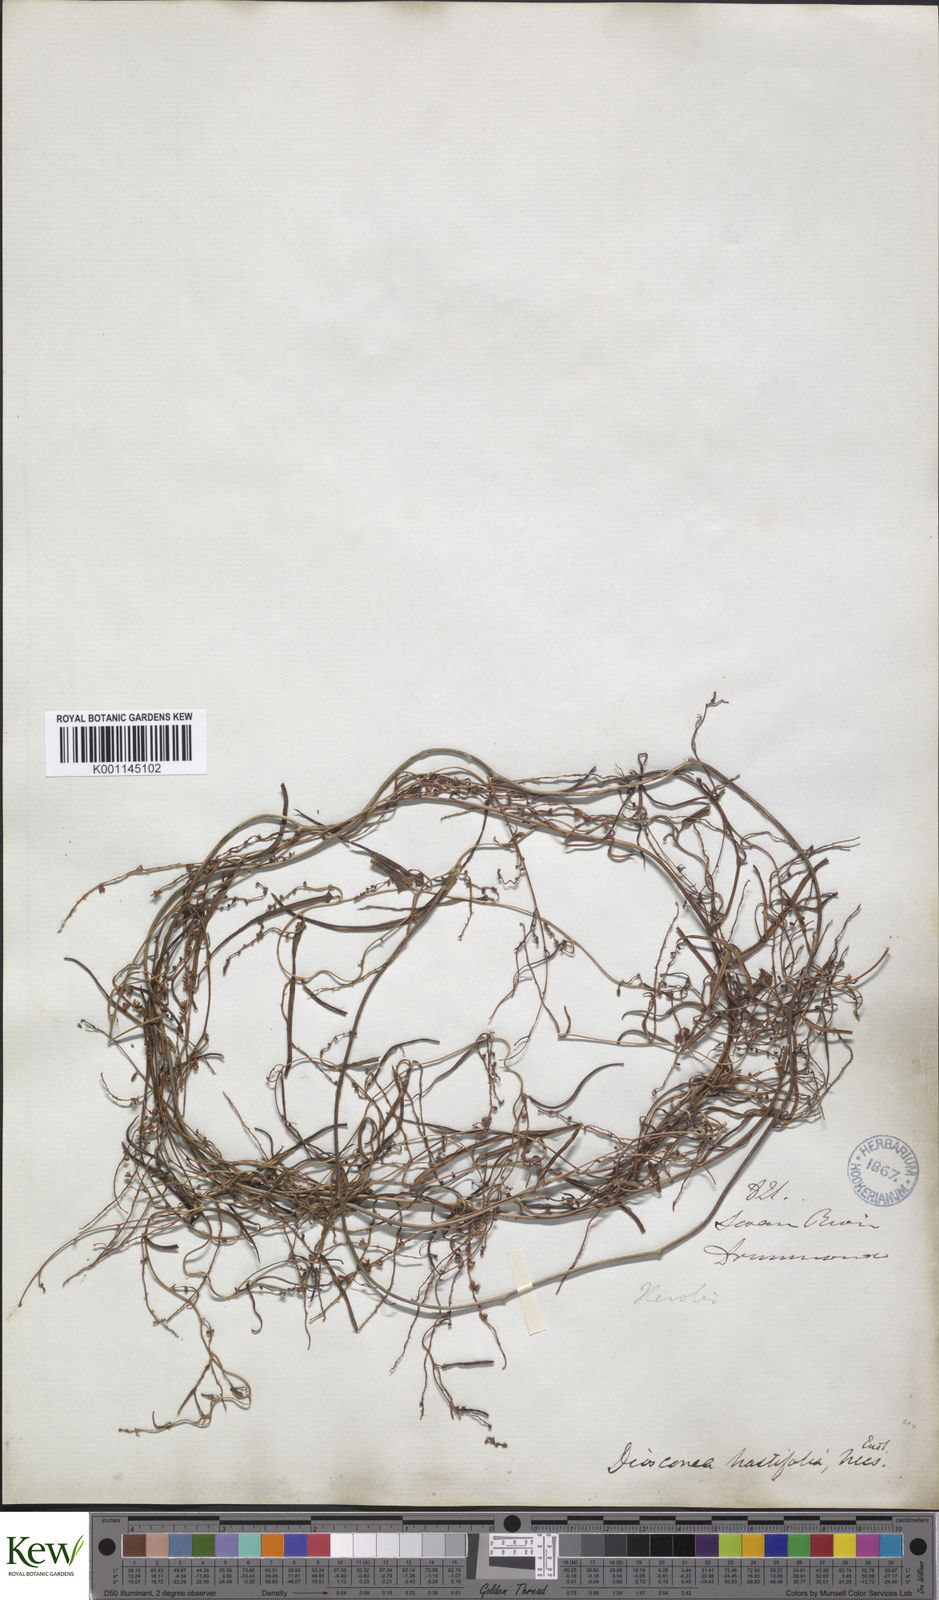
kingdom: Plantae
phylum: Tracheophyta
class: Liliopsida
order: Dioscoreales
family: Dioscoreaceae
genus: Dioscorea
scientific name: Dioscorea hastifolia
